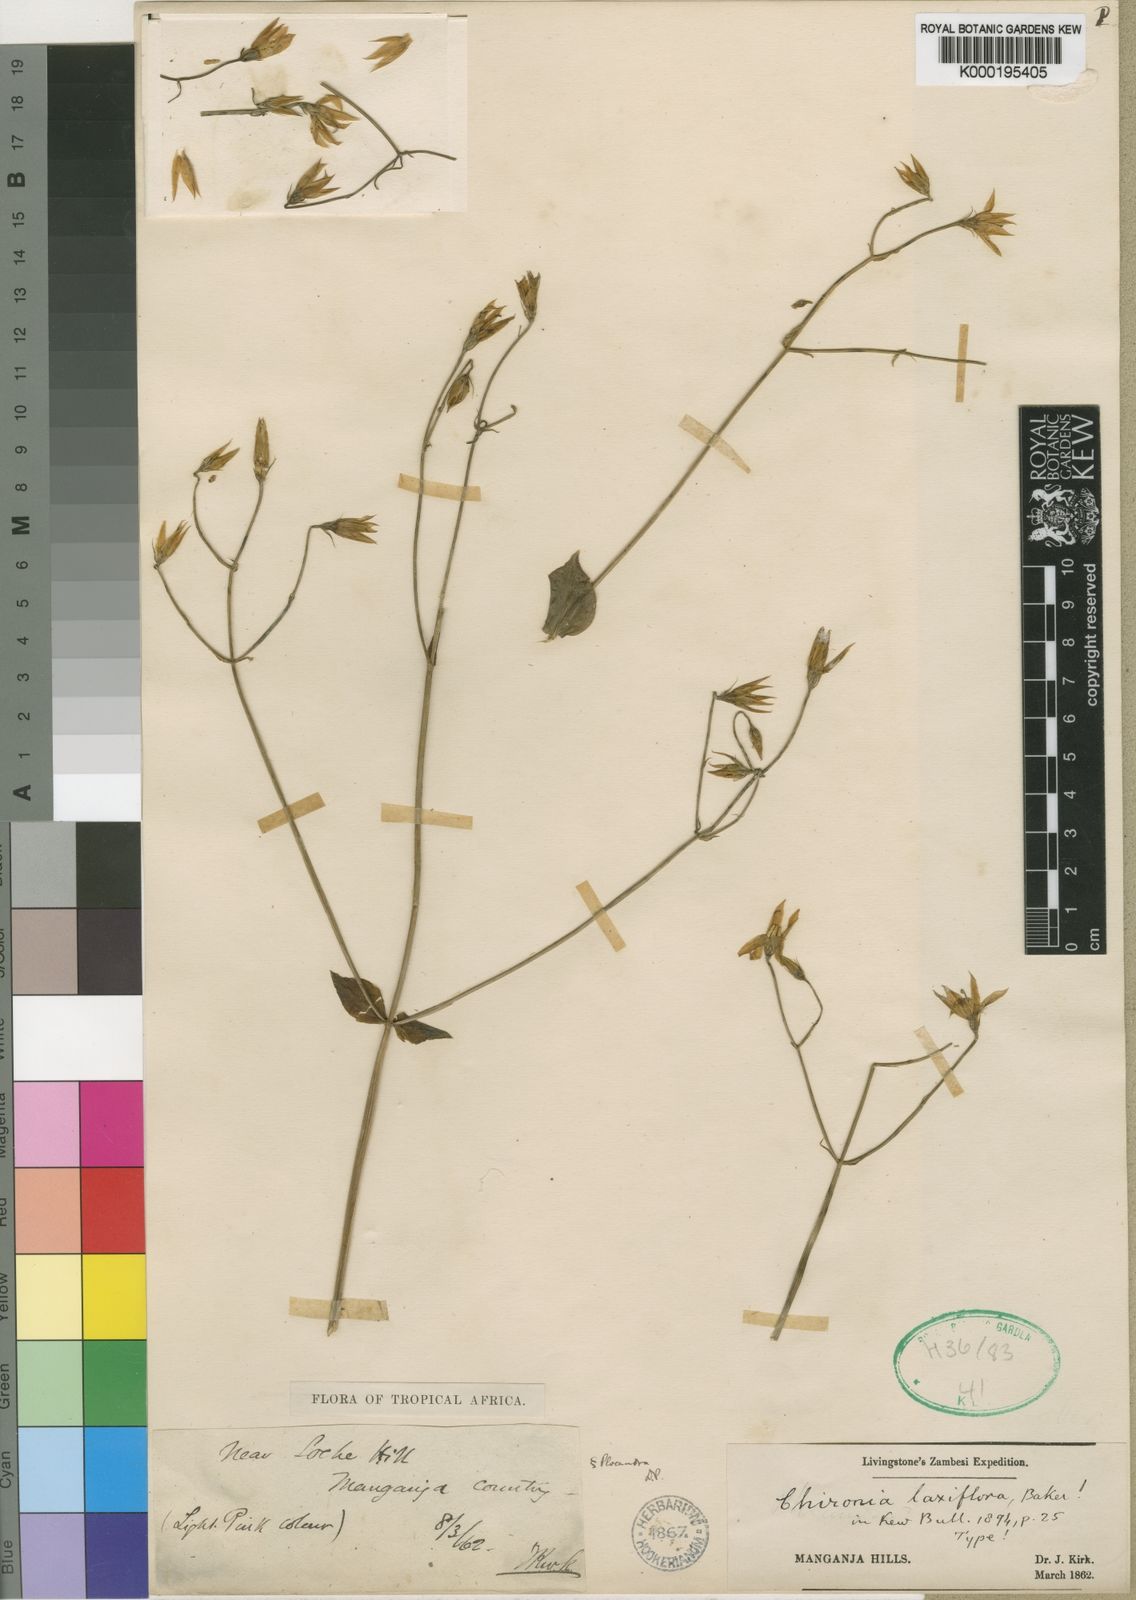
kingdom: Plantae
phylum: Tracheophyta
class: Magnoliopsida
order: Gentianales
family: Gentianaceae
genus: Chironia
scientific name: Chironia laxiflora
